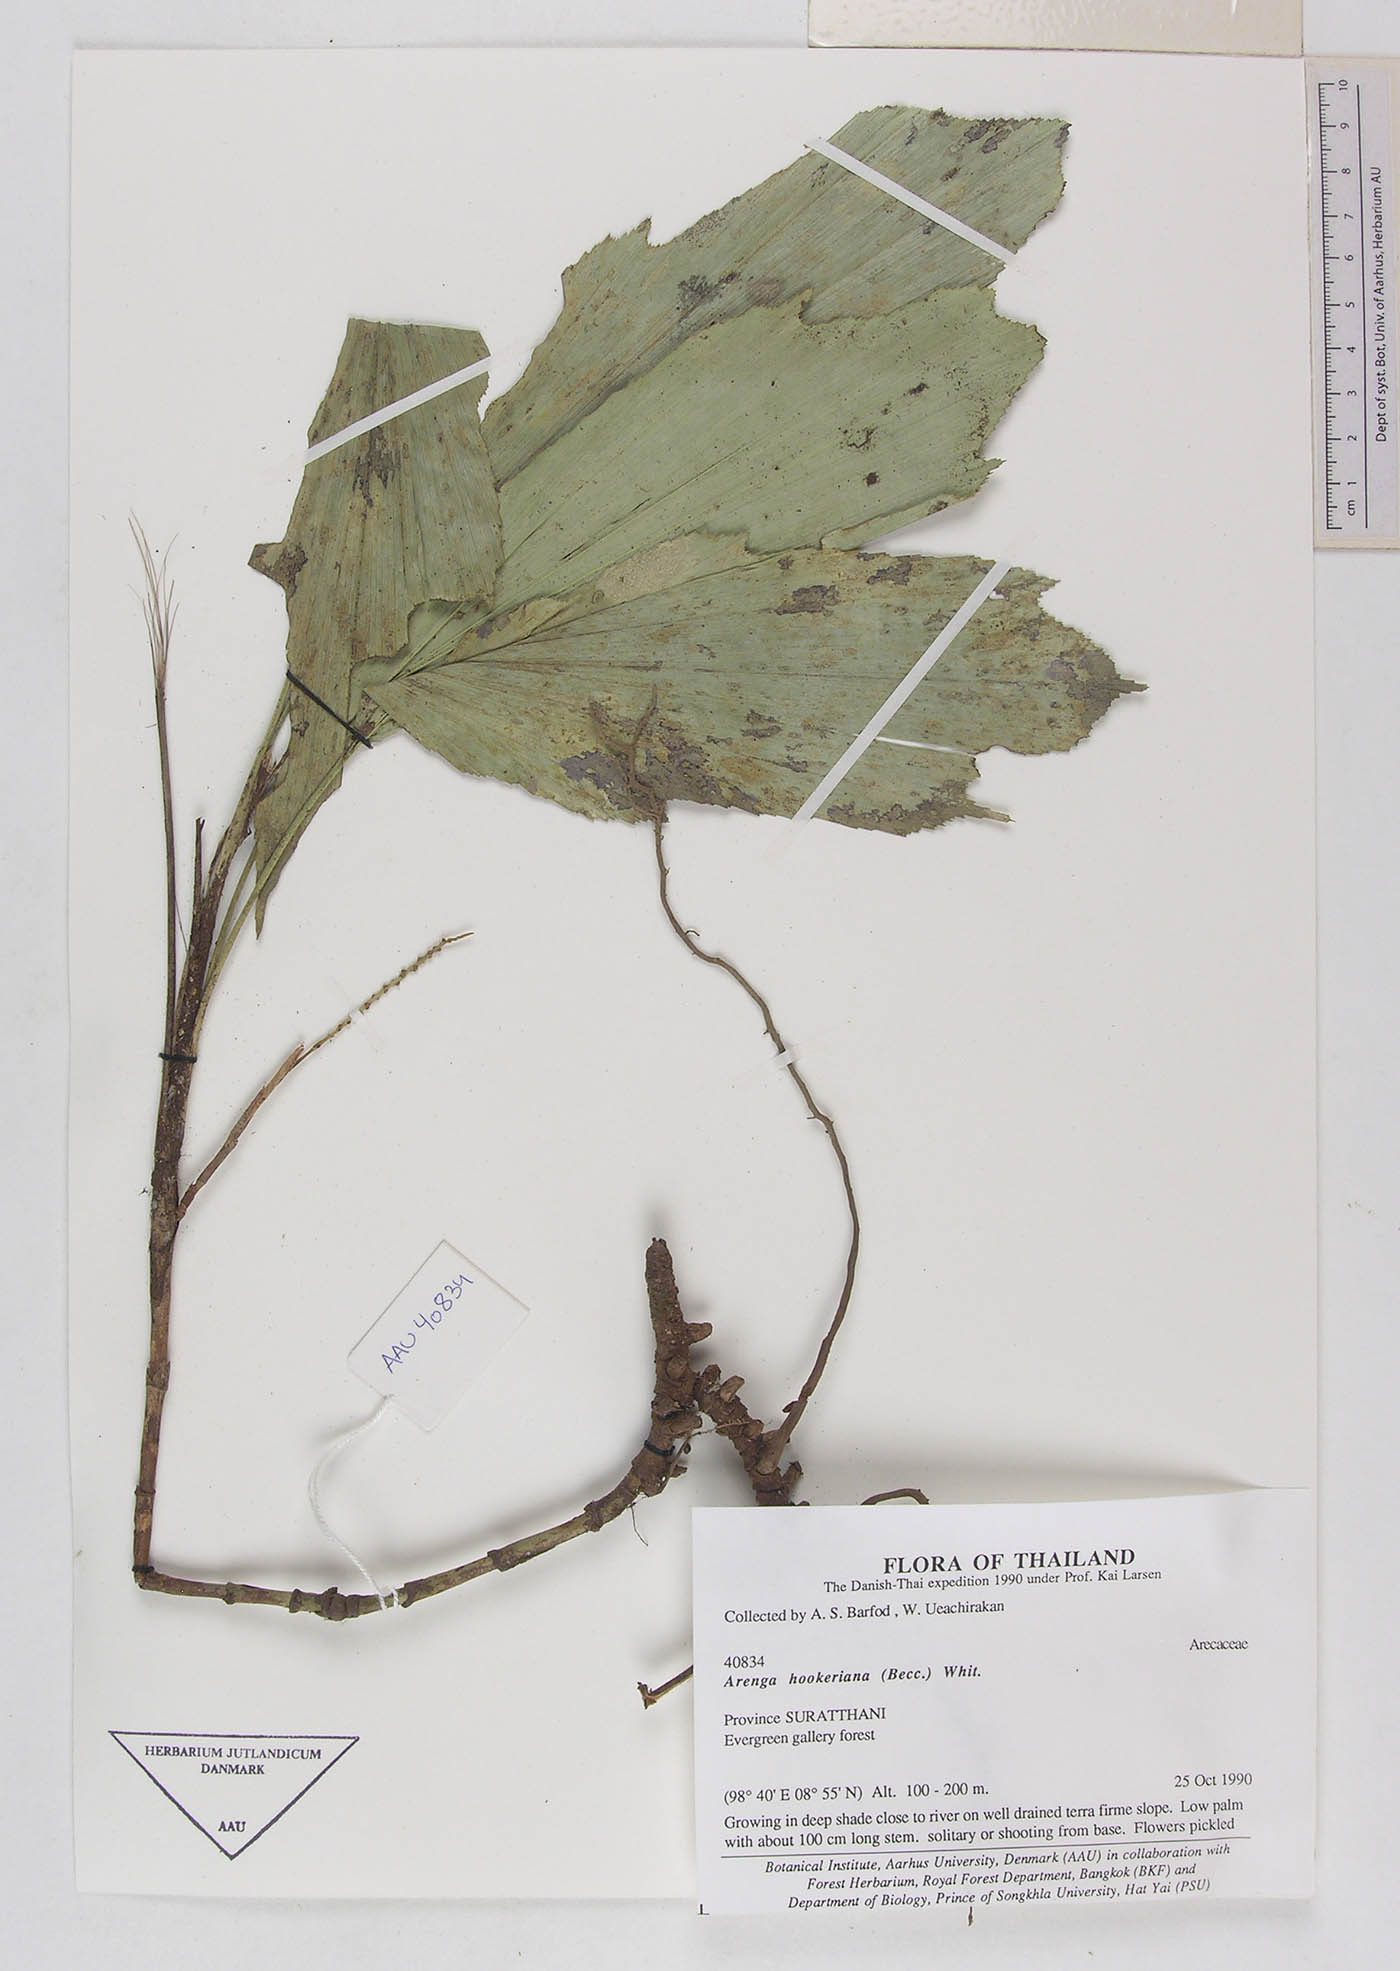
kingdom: Plantae
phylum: Tracheophyta
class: Liliopsida
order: Arecales
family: Arecaceae
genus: Arenga
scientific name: Arenga hookeriana
